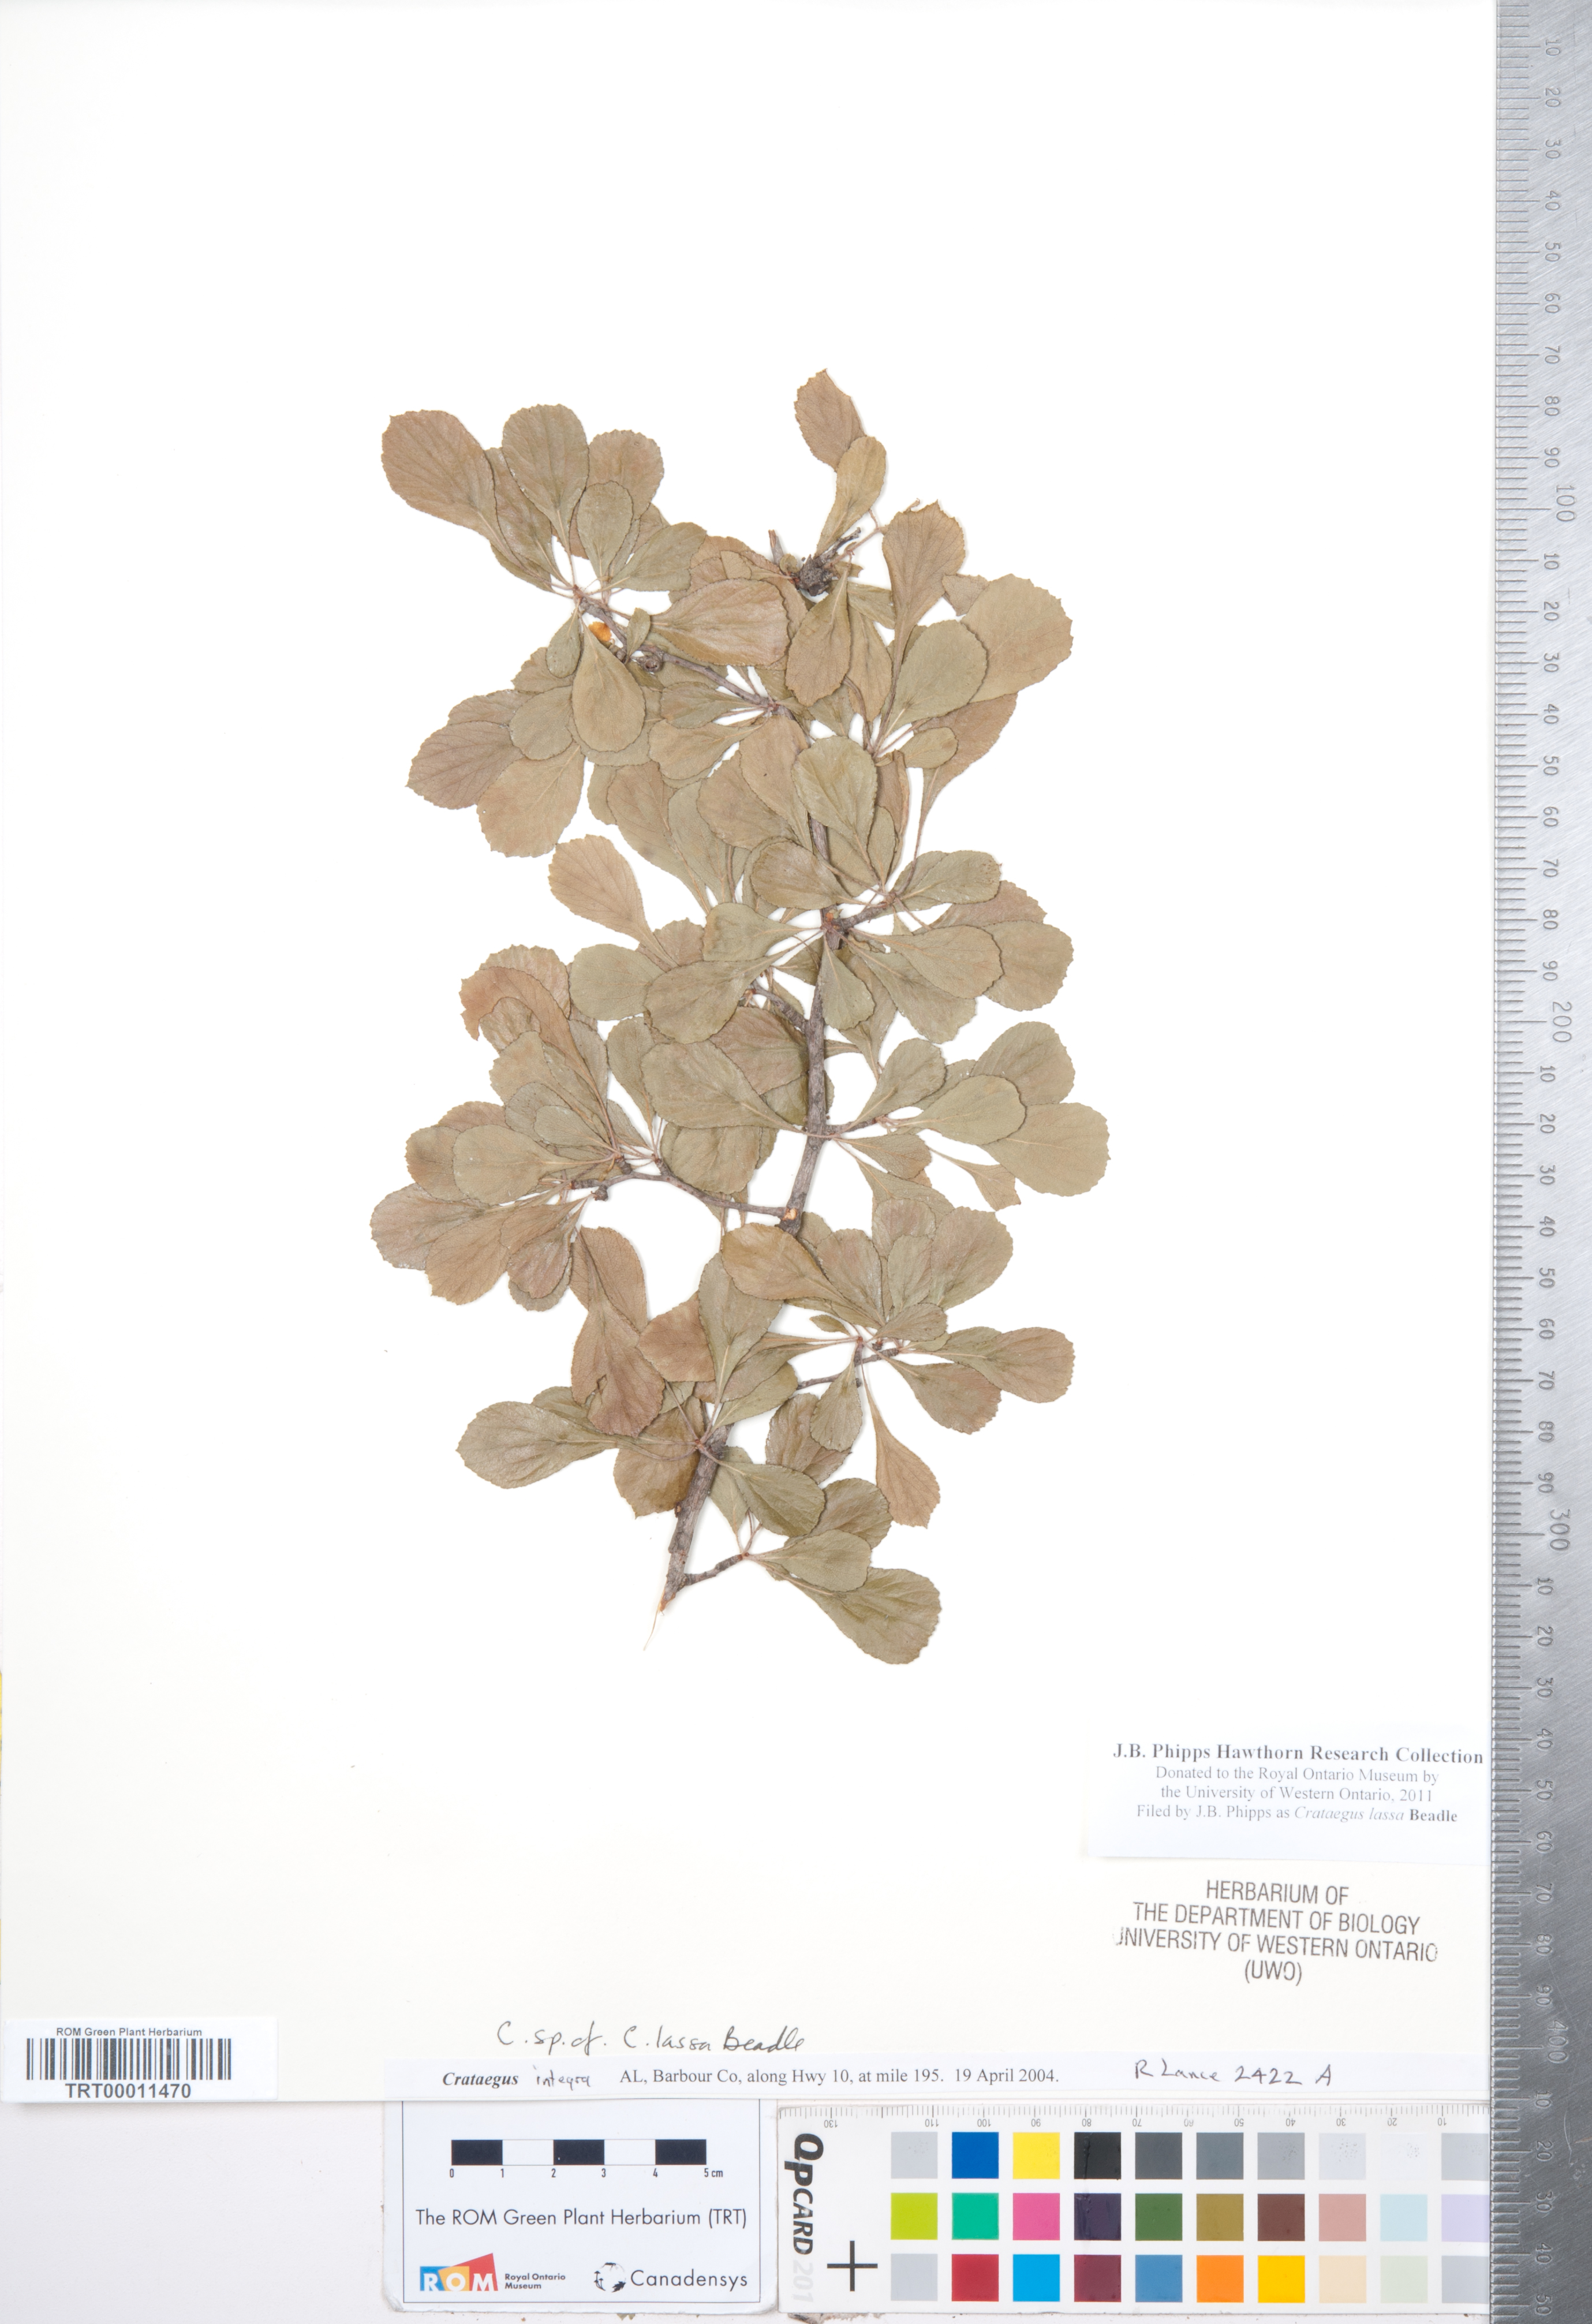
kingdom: Plantae
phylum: Tracheophyta
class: Magnoliopsida
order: Rosales
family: Rosaceae
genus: Crataegus
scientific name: Crataegus lassa
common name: Florida hawthorn
